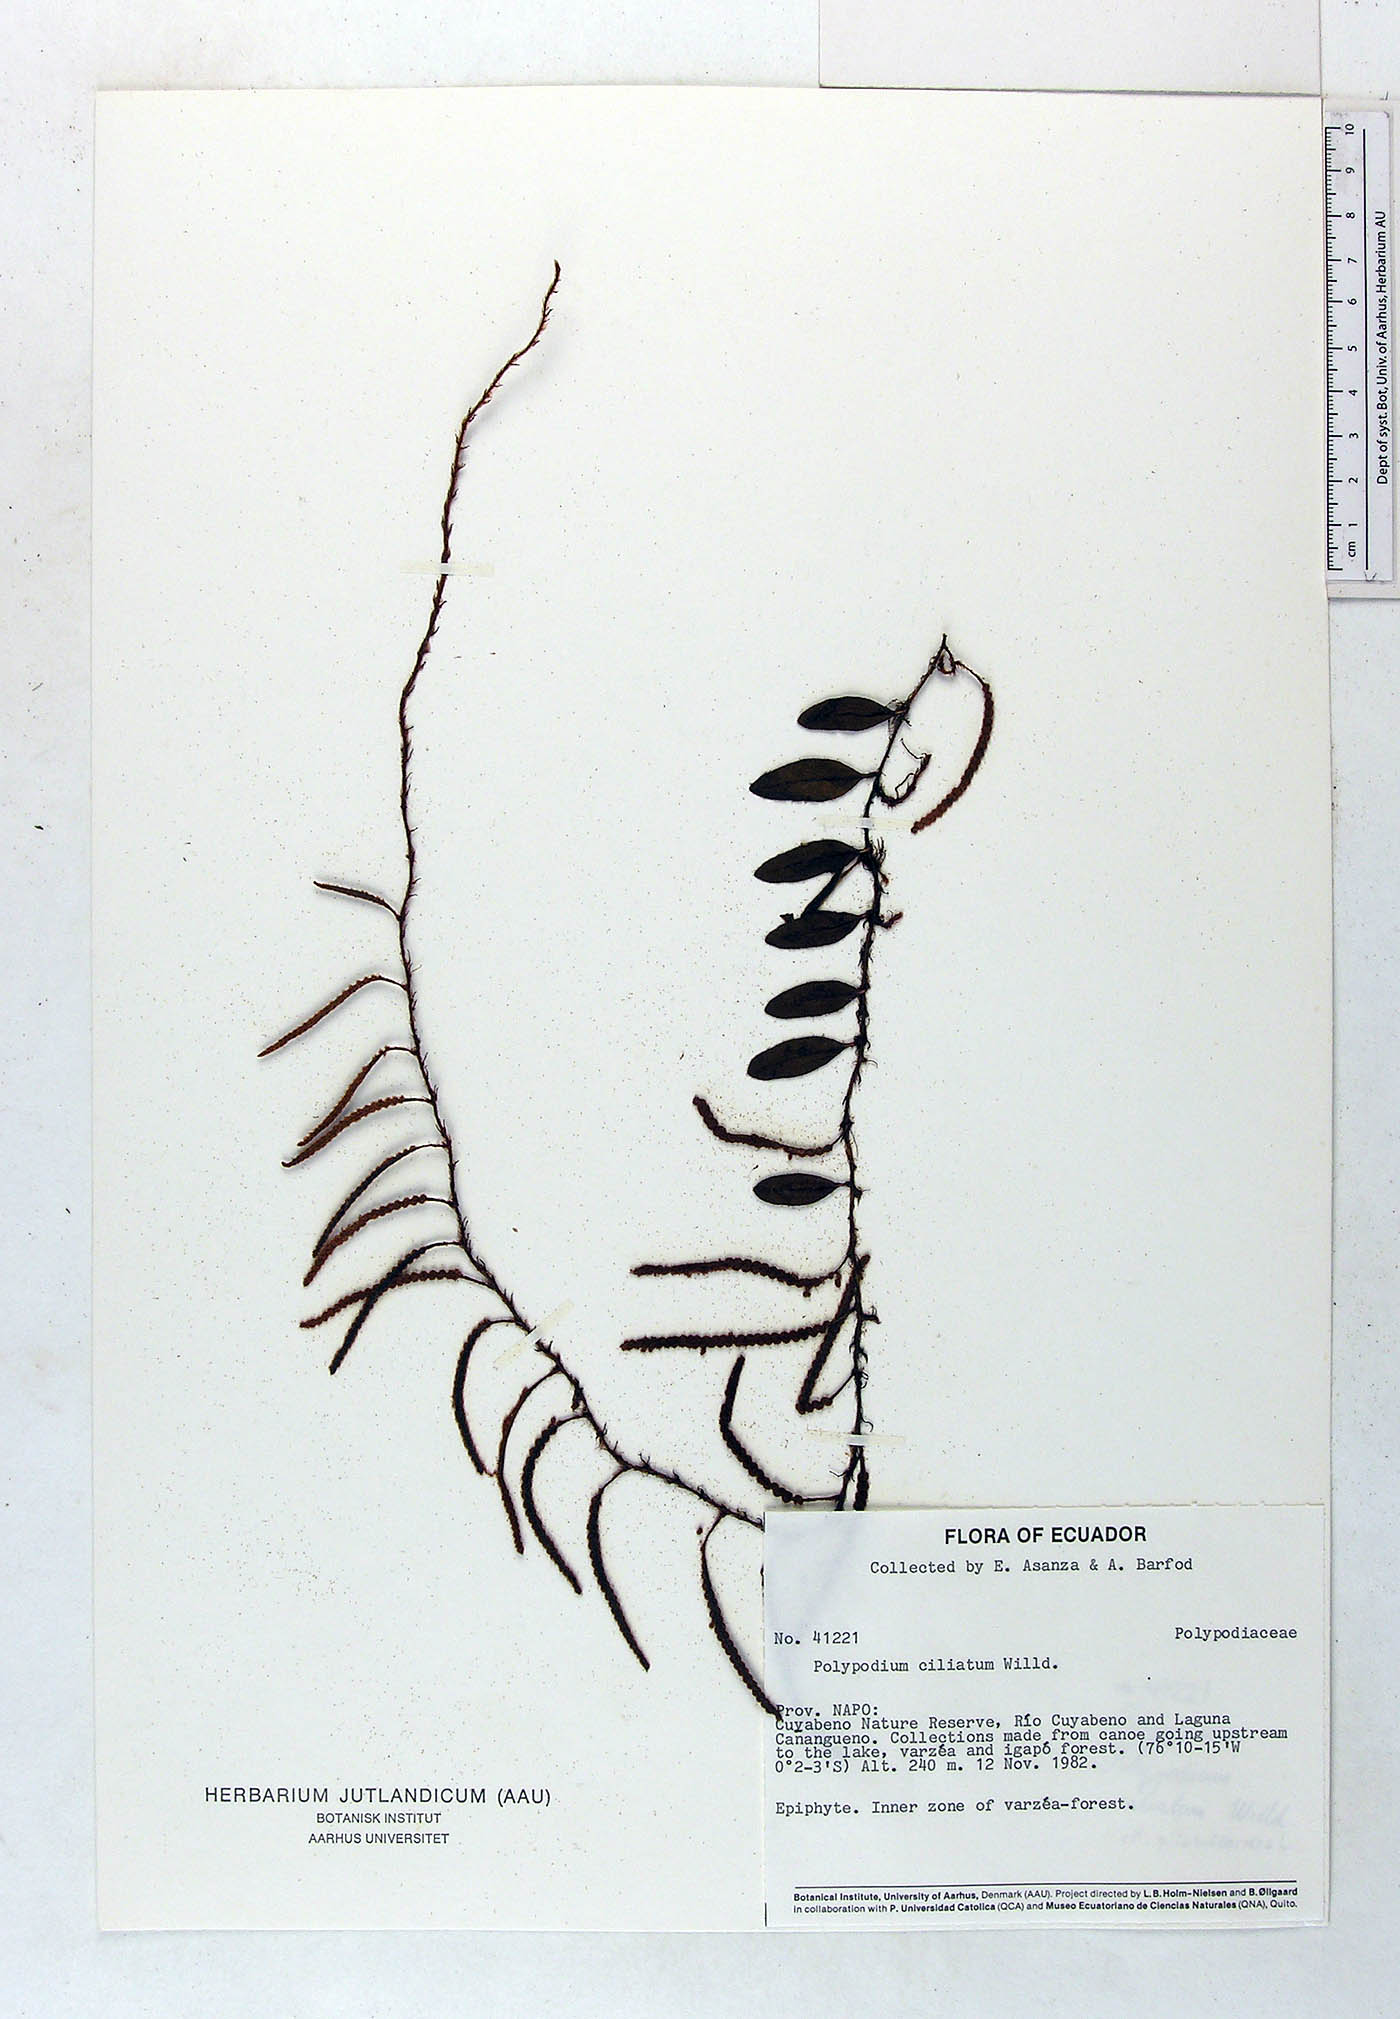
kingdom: Plantae
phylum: Tracheophyta
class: Polypodiopsida
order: Polypodiales
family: Polypodiaceae
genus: Microgramma
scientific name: Microgramma reptans
